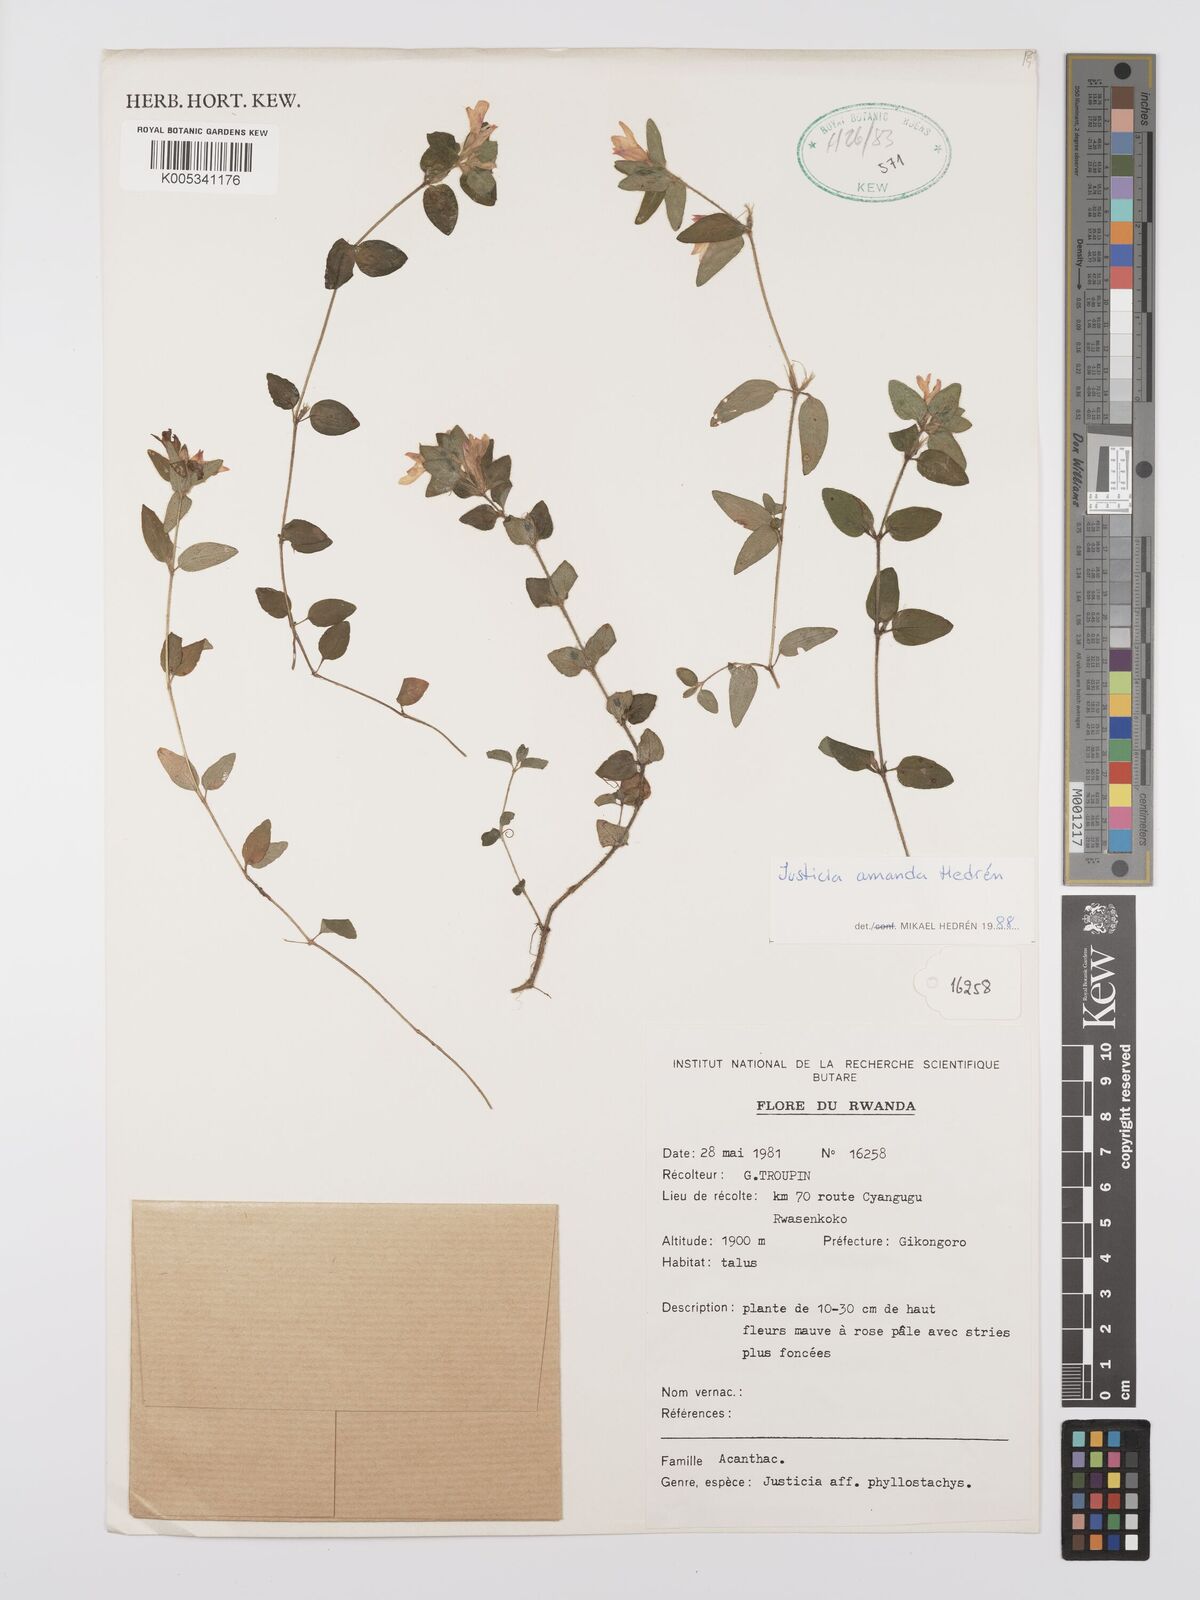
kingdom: Plantae
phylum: Tracheophyta
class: Magnoliopsida
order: Lamiales
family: Acanthaceae
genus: Justicia
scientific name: Justicia amanda
